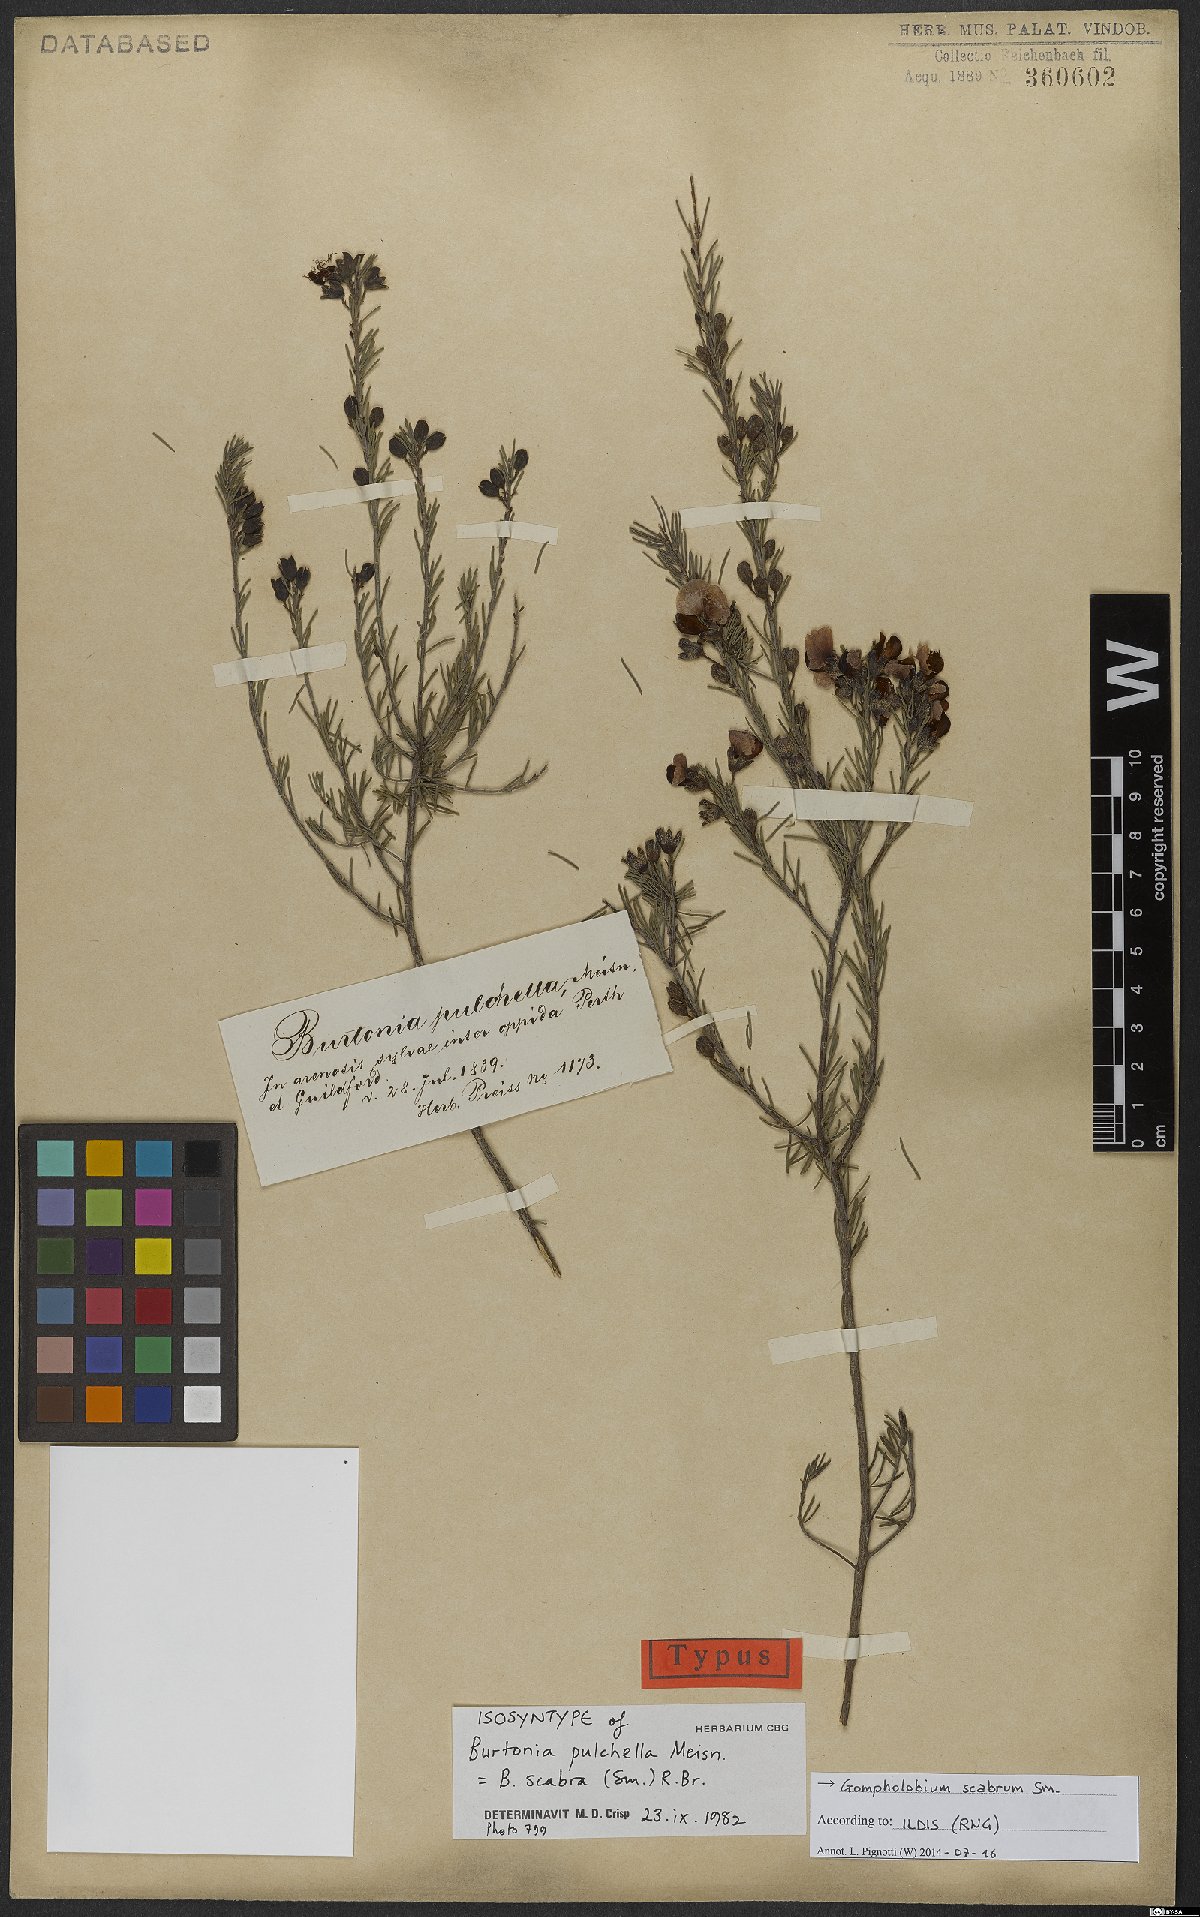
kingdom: Plantae
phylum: Tracheophyta
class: Magnoliopsida
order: Fabales
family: Fabaceae
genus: Gompholobium
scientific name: Gompholobium scabrum
